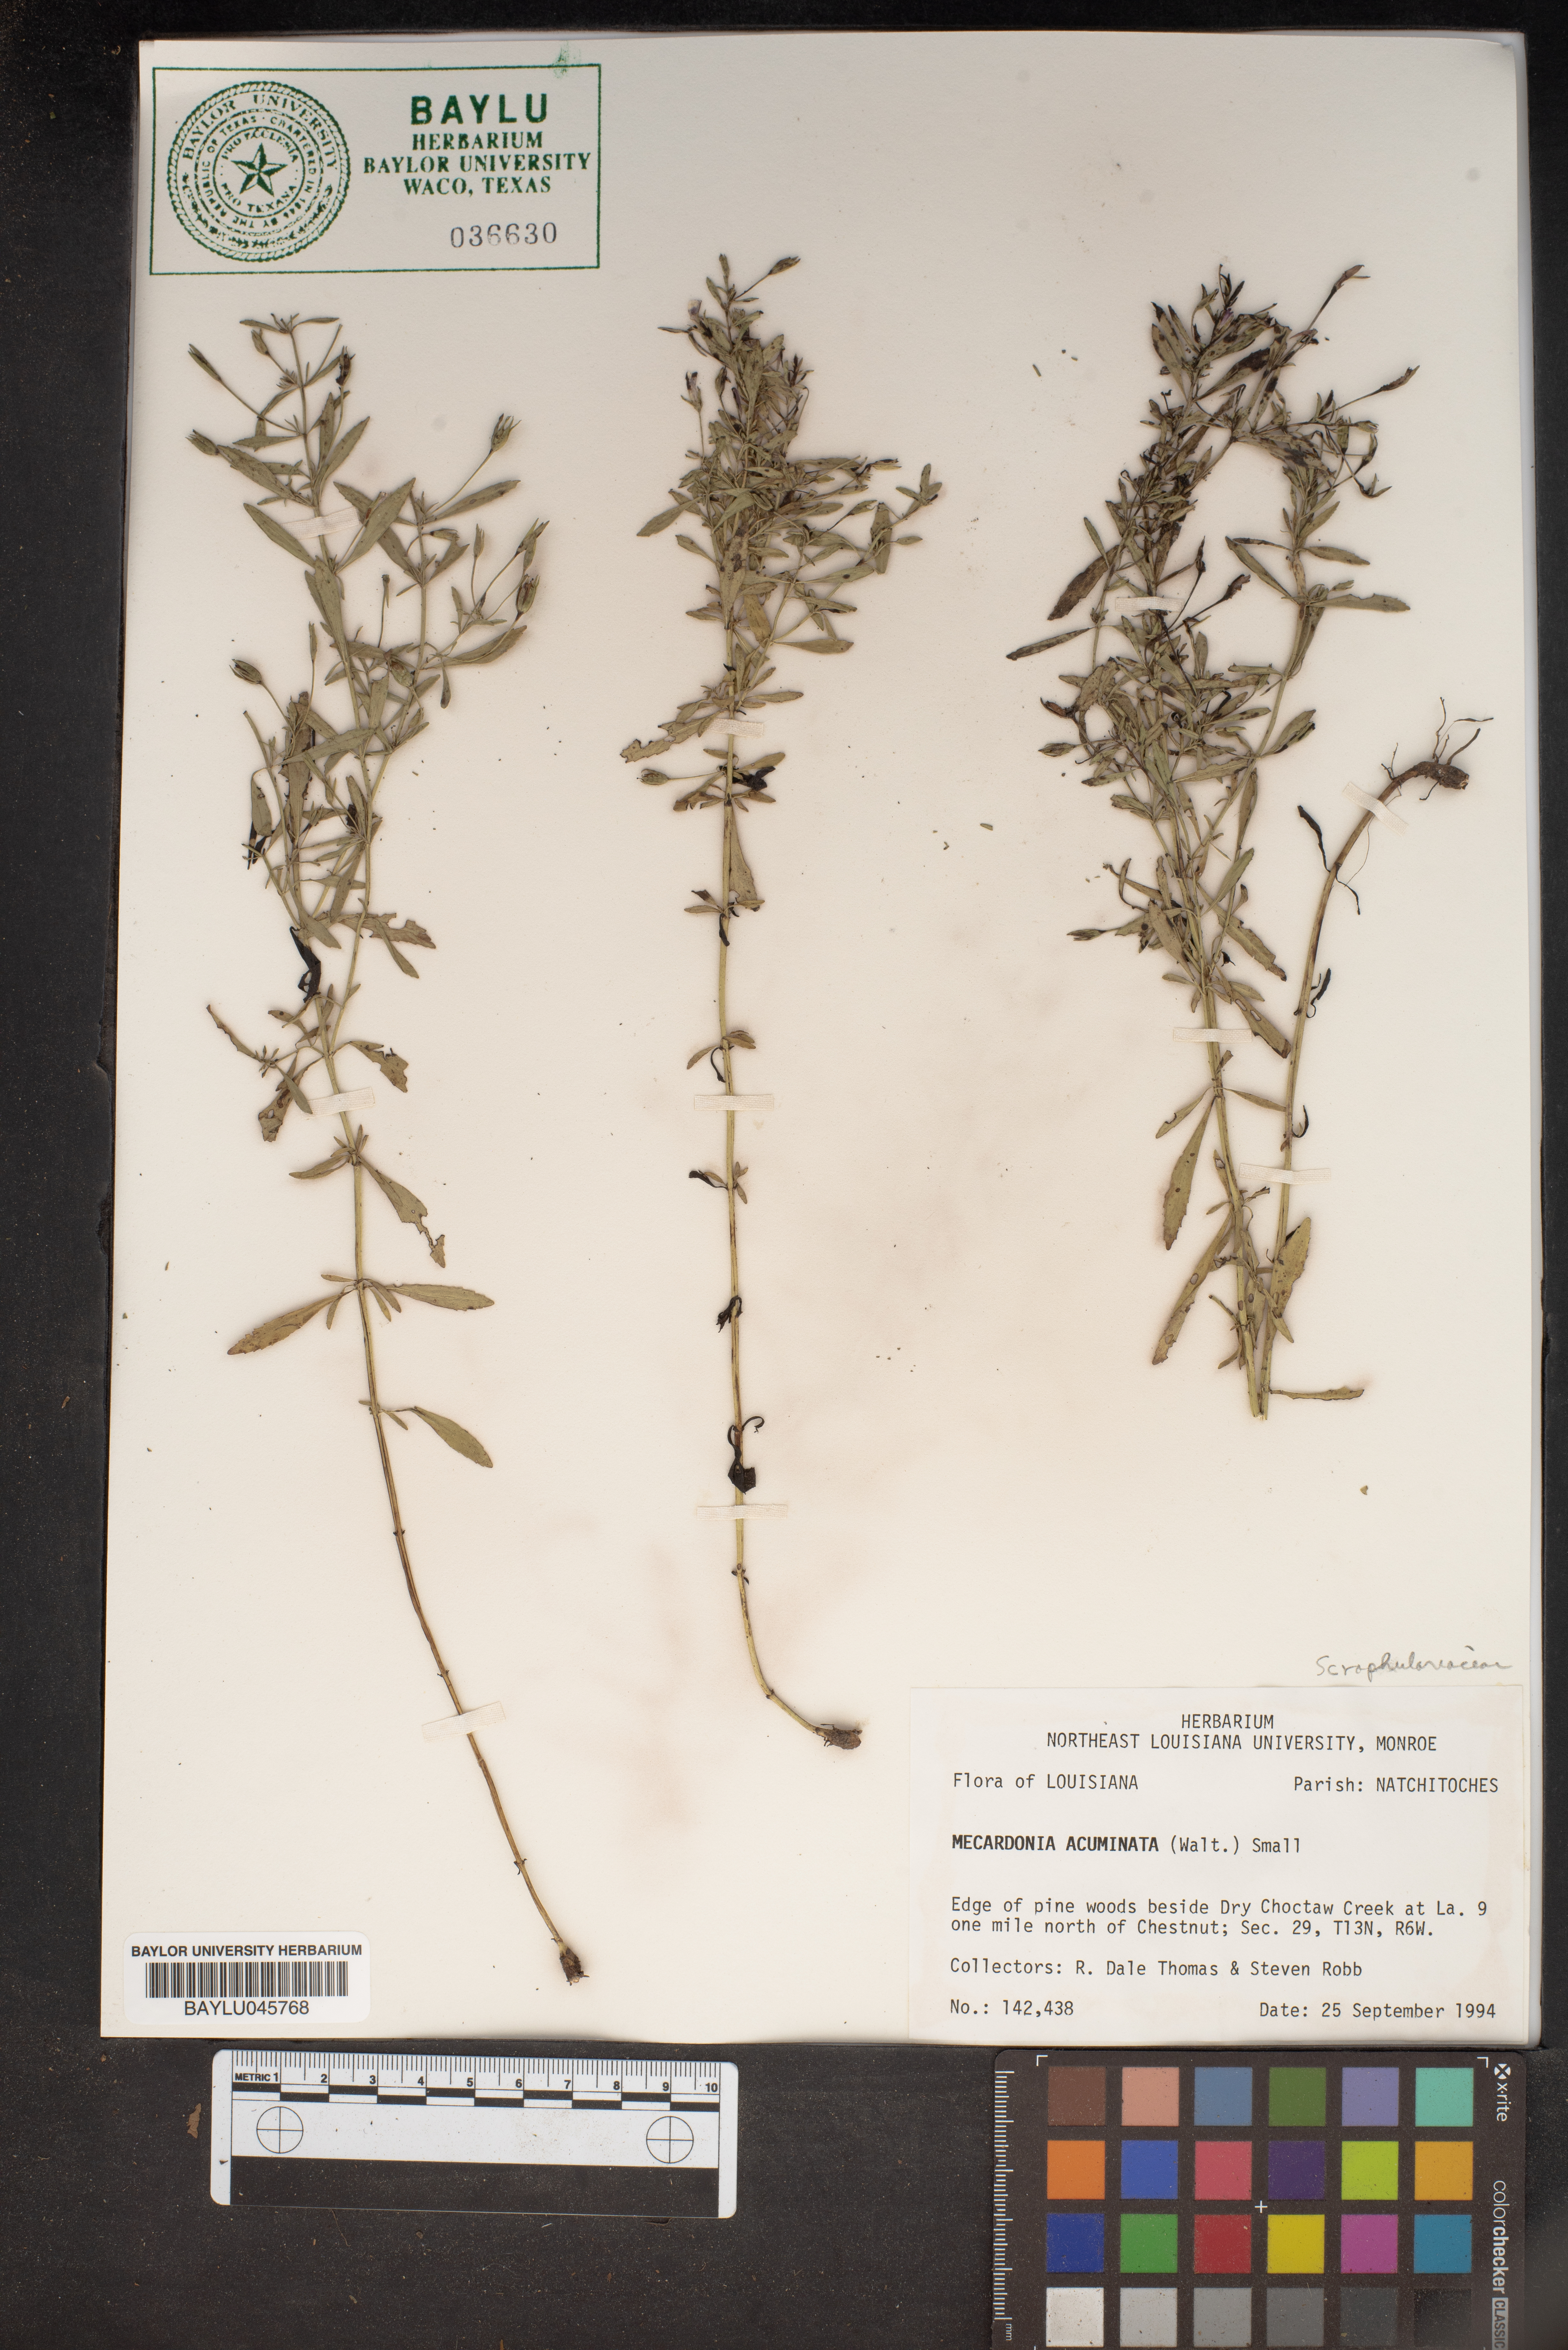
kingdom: Plantae
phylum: Tracheophyta
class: Magnoliopsida
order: Lamiales
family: Plantaginaceae
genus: Mecardonia
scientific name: Mecardonia acuminata
